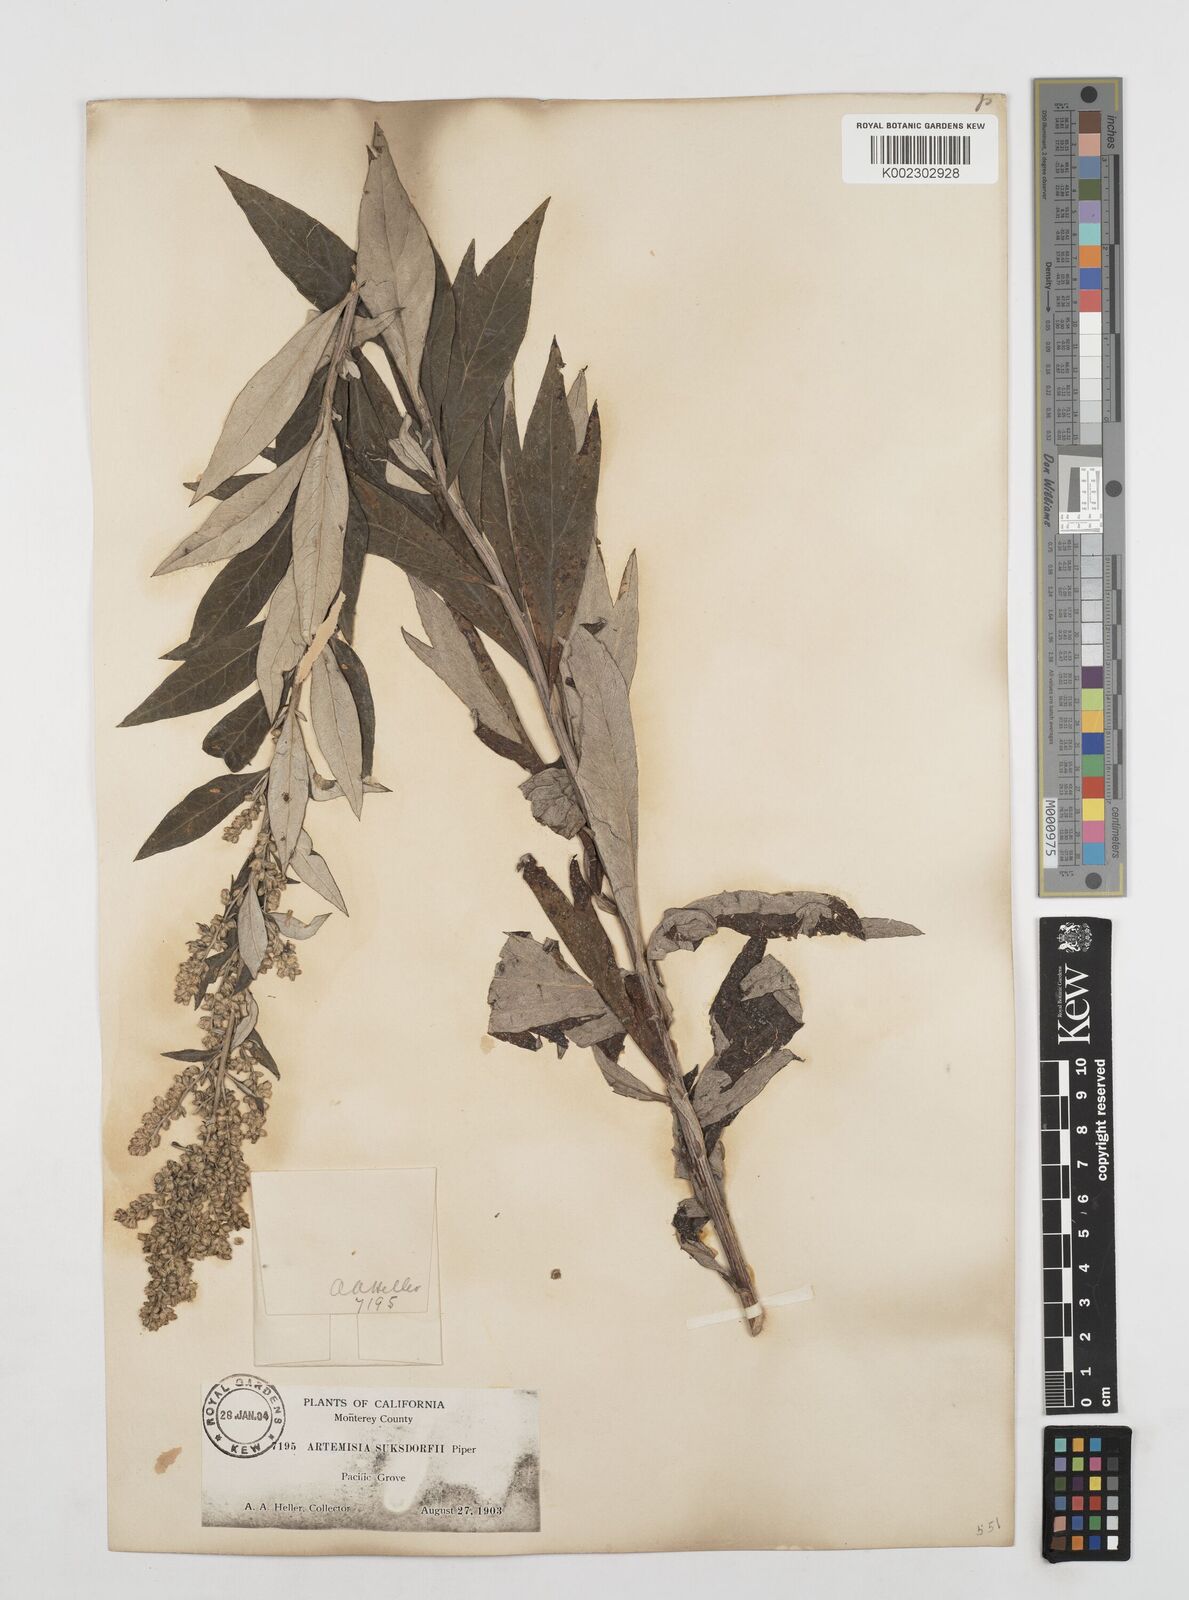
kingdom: Plantae
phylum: Tracheophyta
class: Magnoliopsida
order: Asterales
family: Asteraceae
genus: Artemisia
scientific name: Artemisia douglasiana
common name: Northwest mugwort
